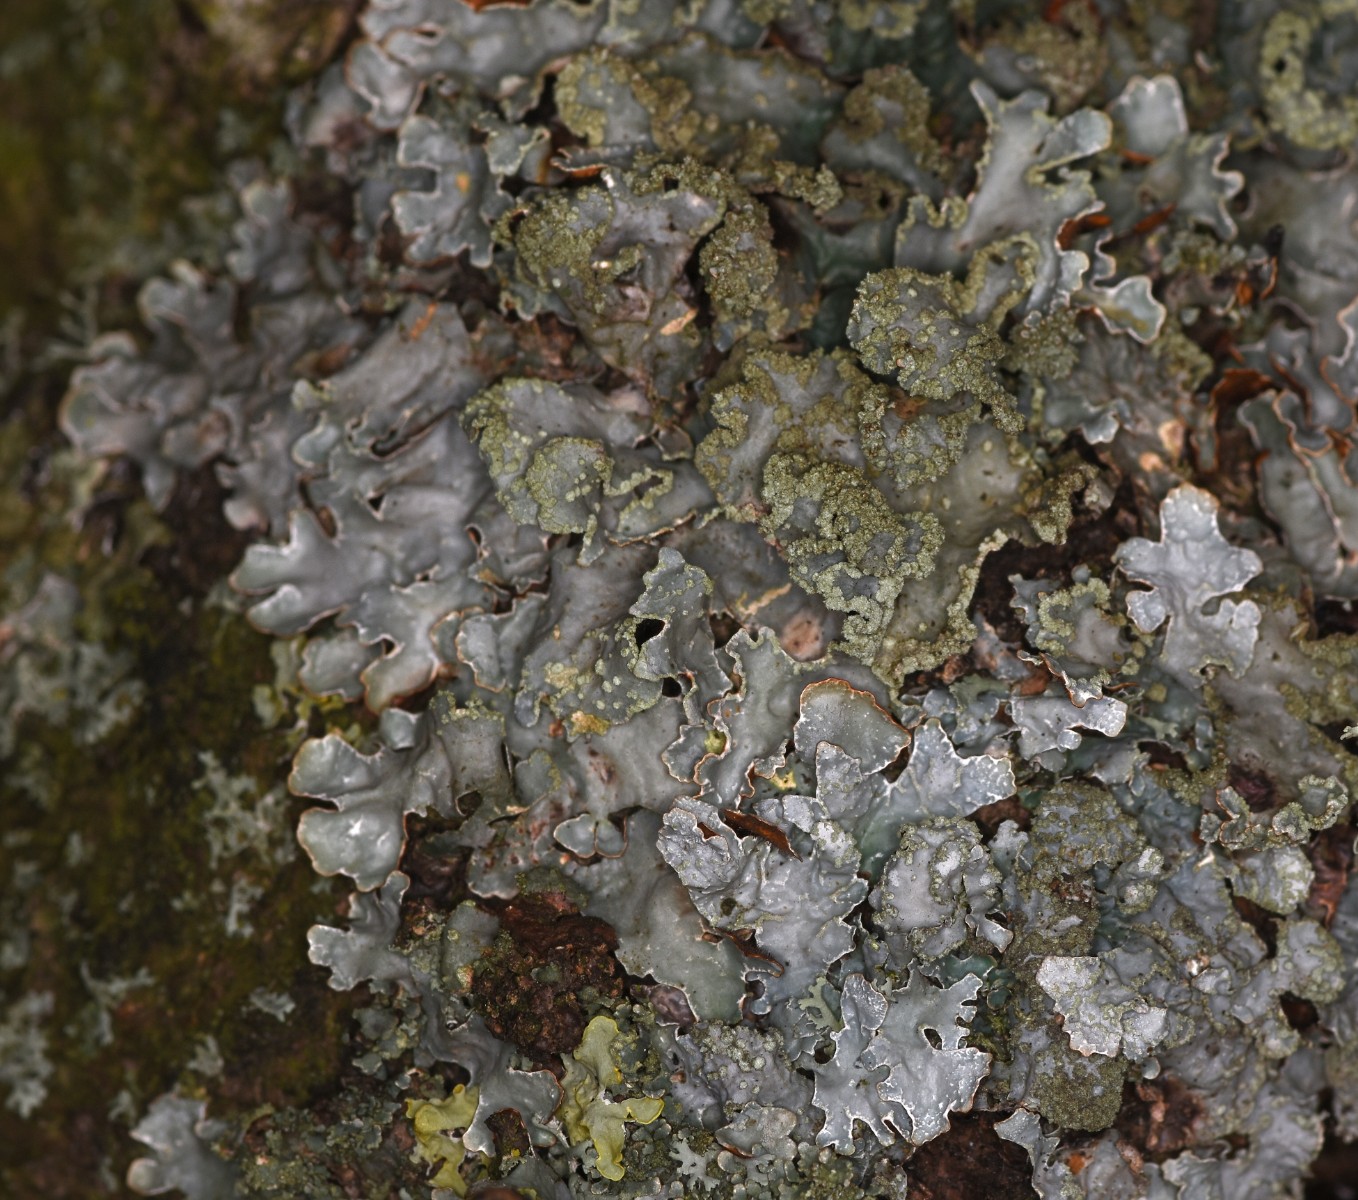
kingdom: Fungi
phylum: Ascomycota
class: Lecanoromycetes
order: Lecanorales
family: Parmeliaceae
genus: Parmelia
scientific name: Parmelia sulcata
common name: rynket skållav
